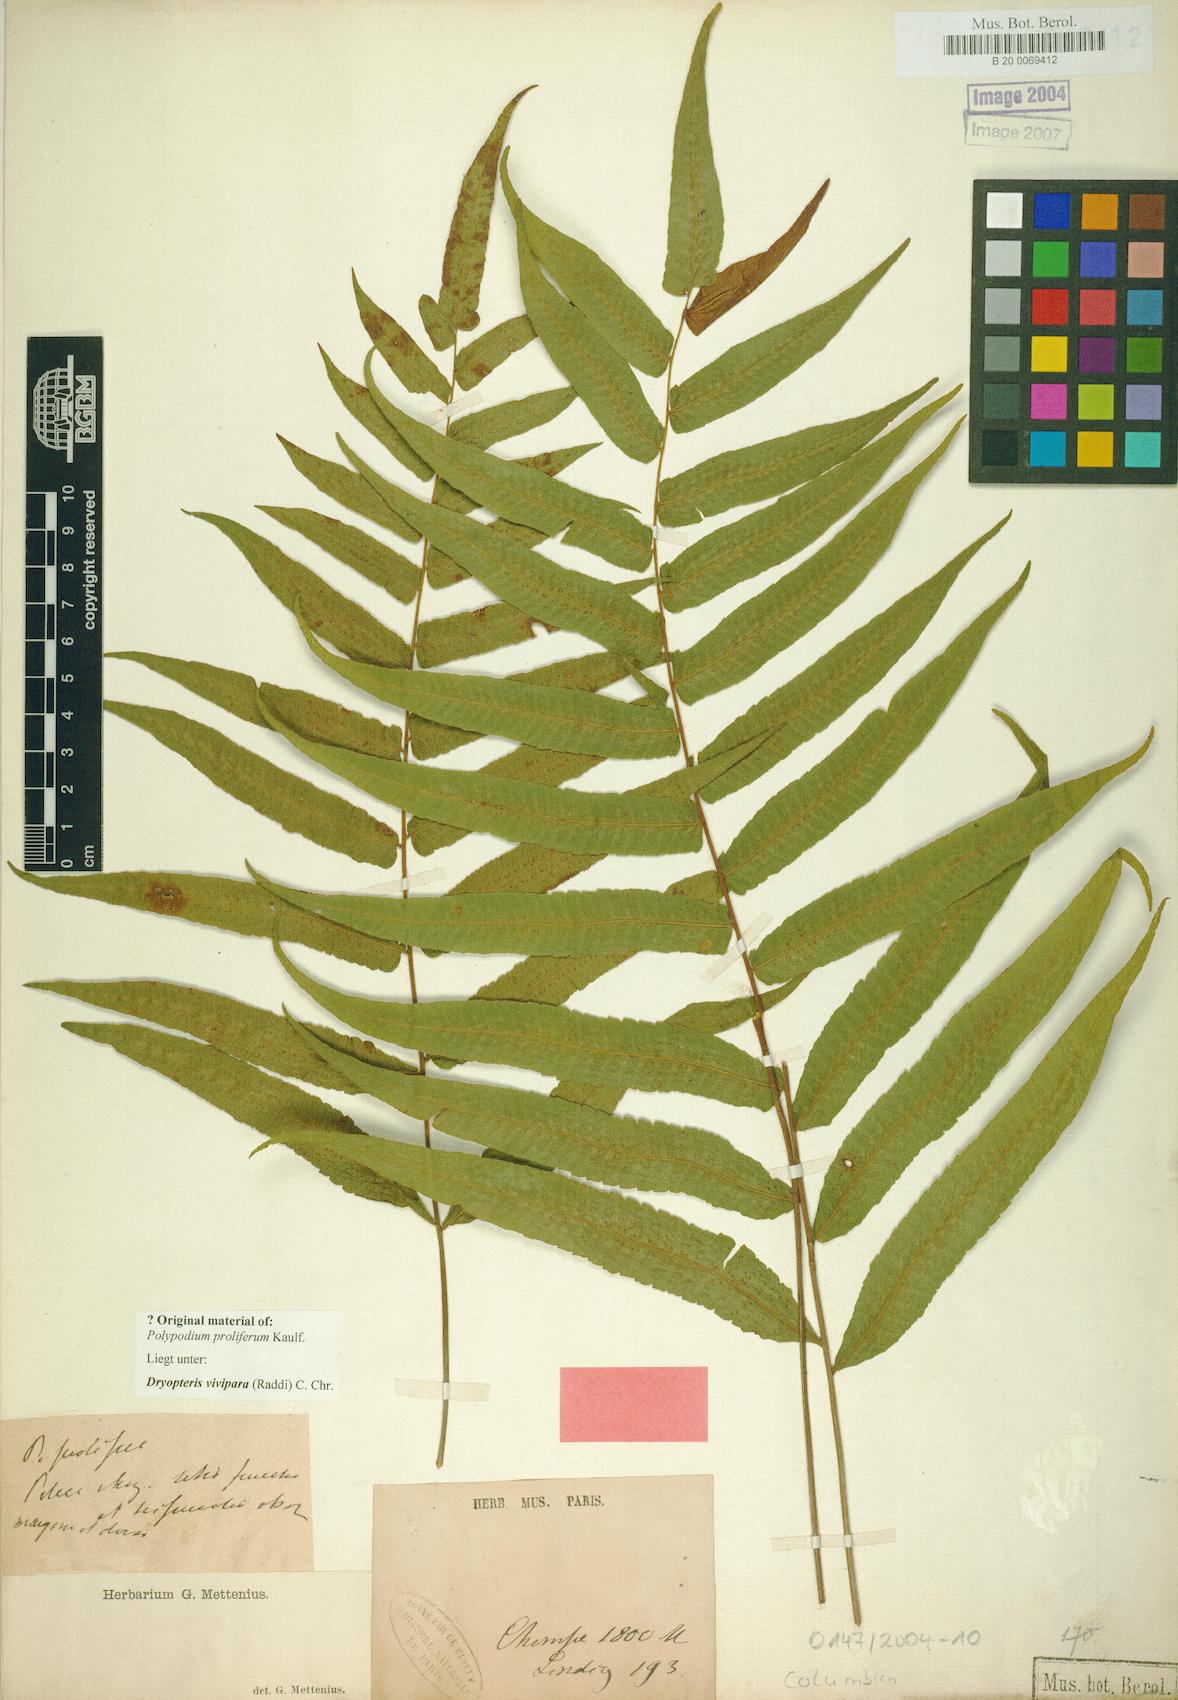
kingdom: Plantae
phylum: Tracheophyta
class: Polypodiopsida
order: Polypodiales
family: Thelypteridaceae
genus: Goniopteris
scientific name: Goniopteris vivipara
